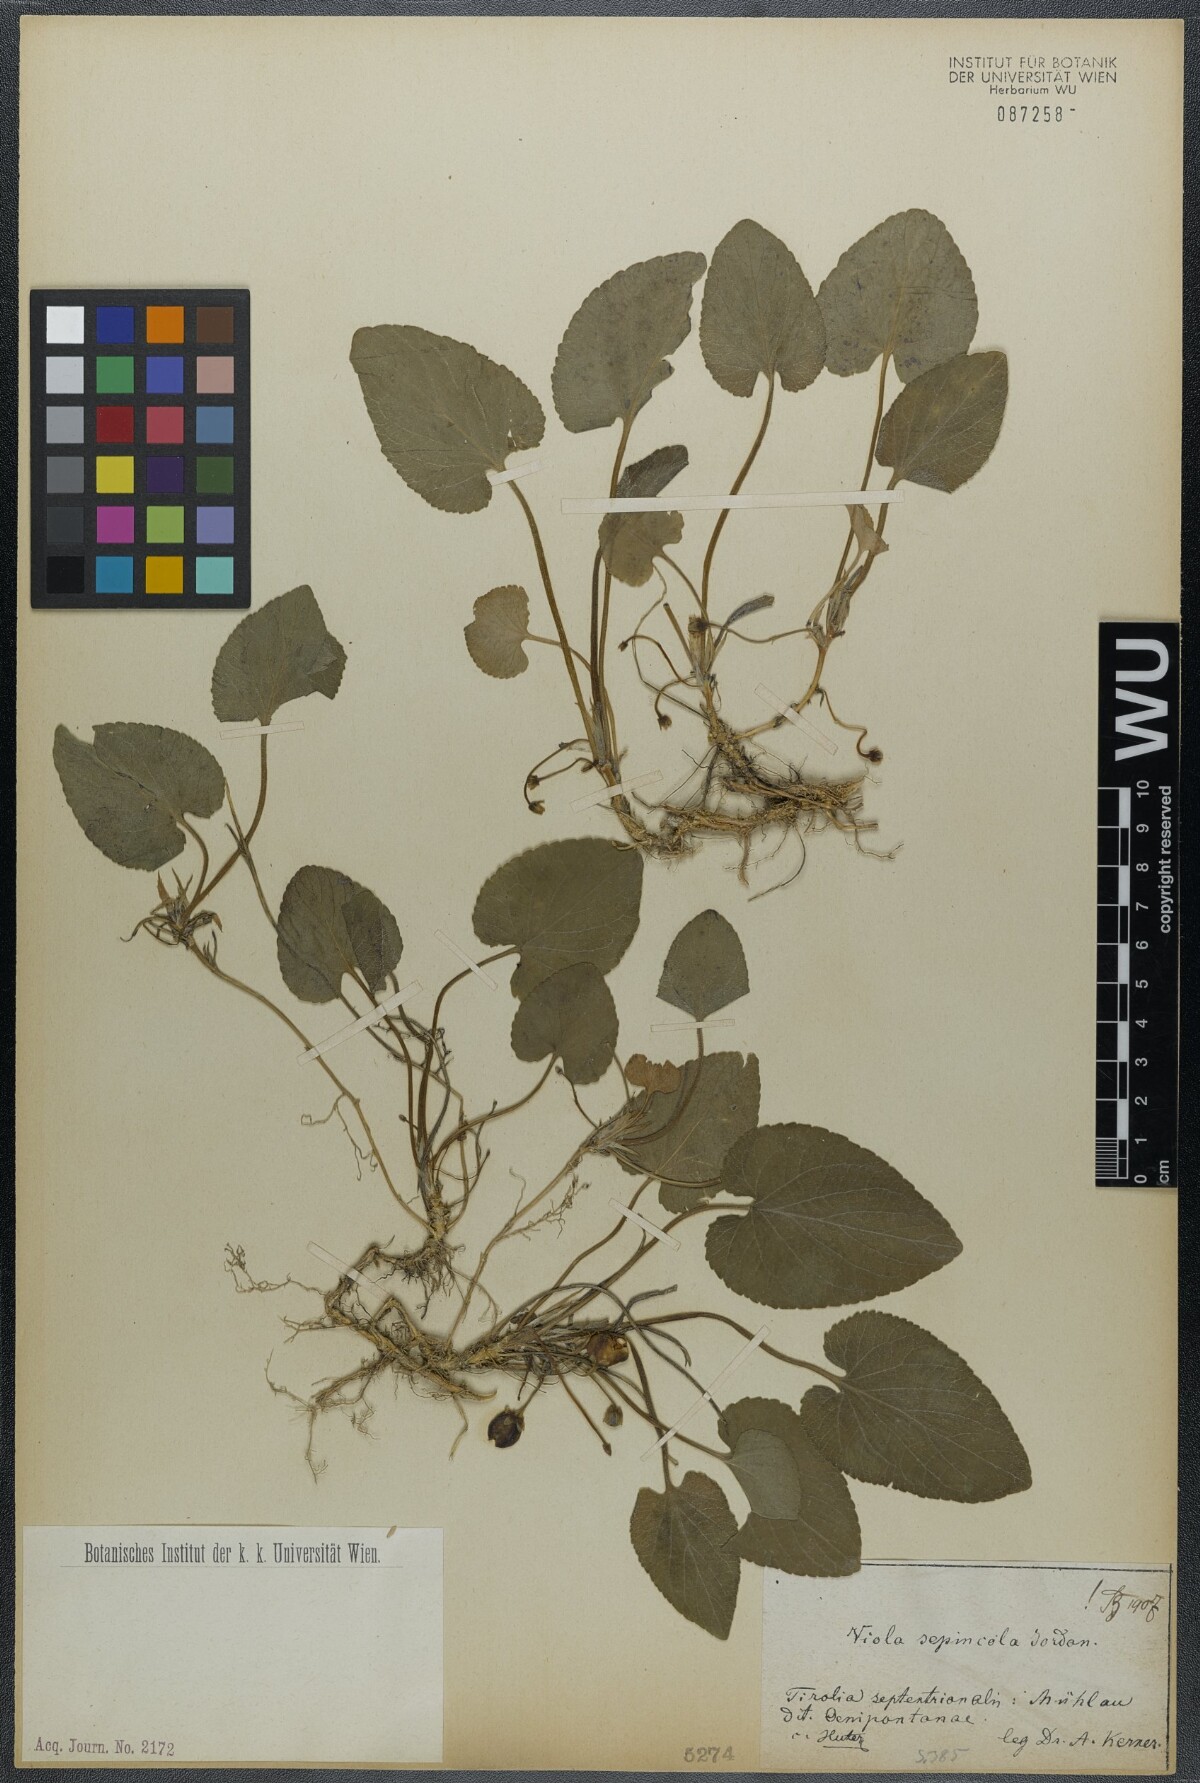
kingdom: Plantae
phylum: Tracheophyta
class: Magnoliopsida
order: Malpighiales
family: Violaceae
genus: Viola
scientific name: Viola suavis
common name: Russian violet
